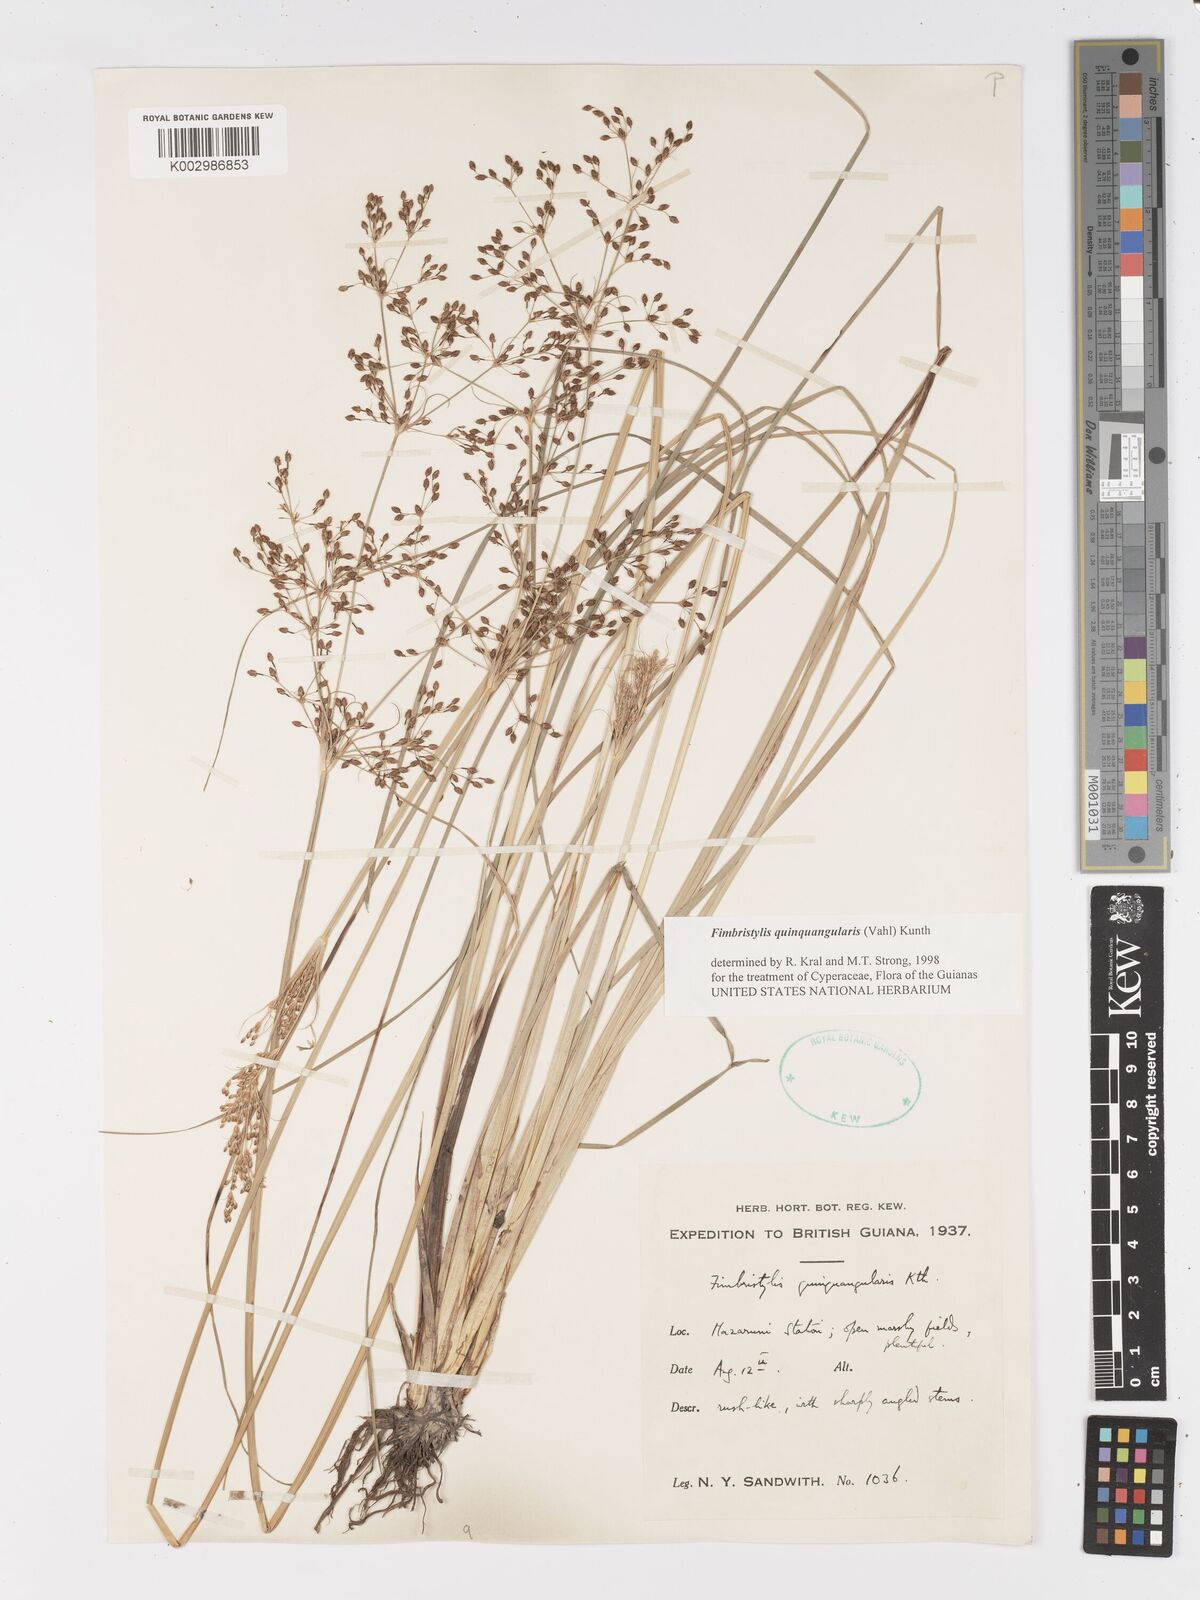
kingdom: Plantae
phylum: Tracheophyta
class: Liliopsida
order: Poales
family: Cyperaceae
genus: Fimbristylis
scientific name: Fimbristylis quinquangularis
